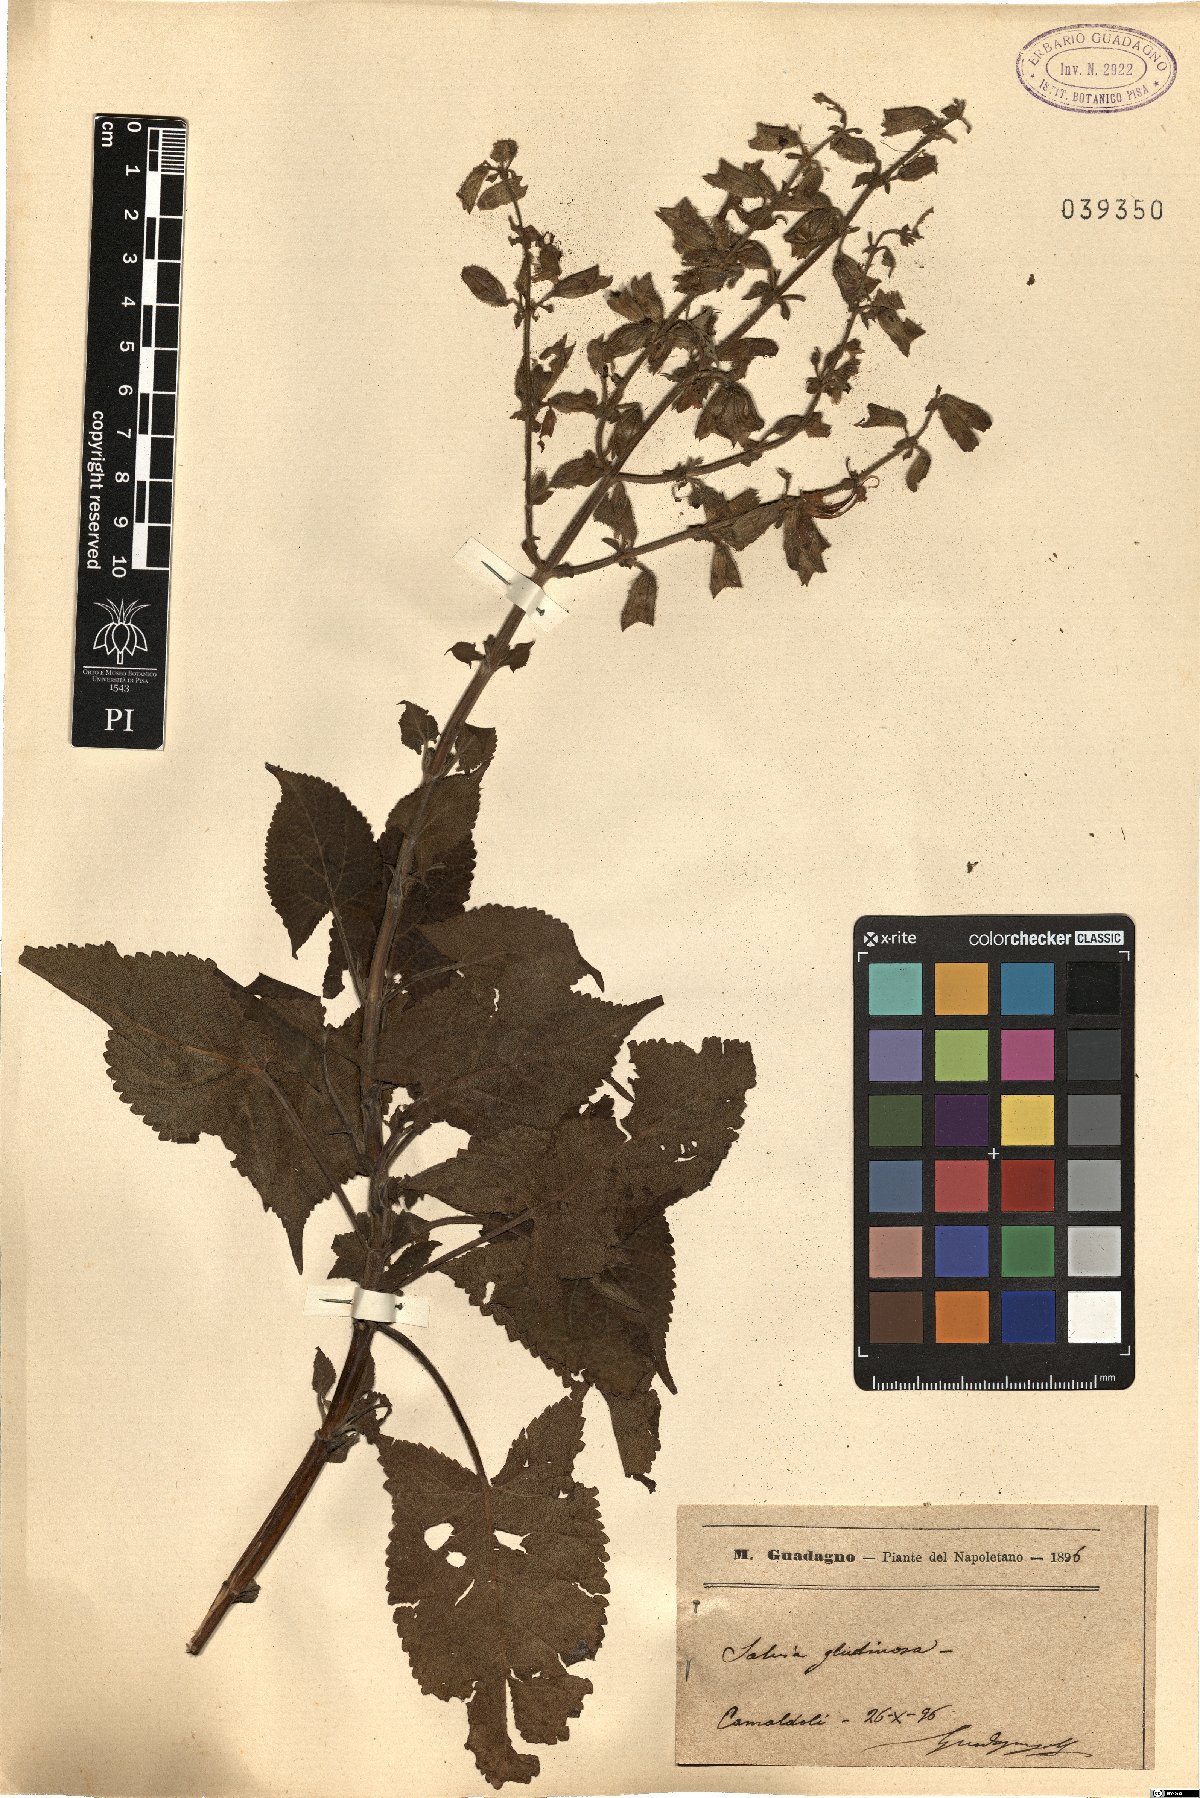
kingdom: Plantae
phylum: Tracheophyta
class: Magnoliopsida
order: Lamiales
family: Lamiaceae
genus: Salvia
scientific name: Salvia glutinosa
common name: Sticky clary
